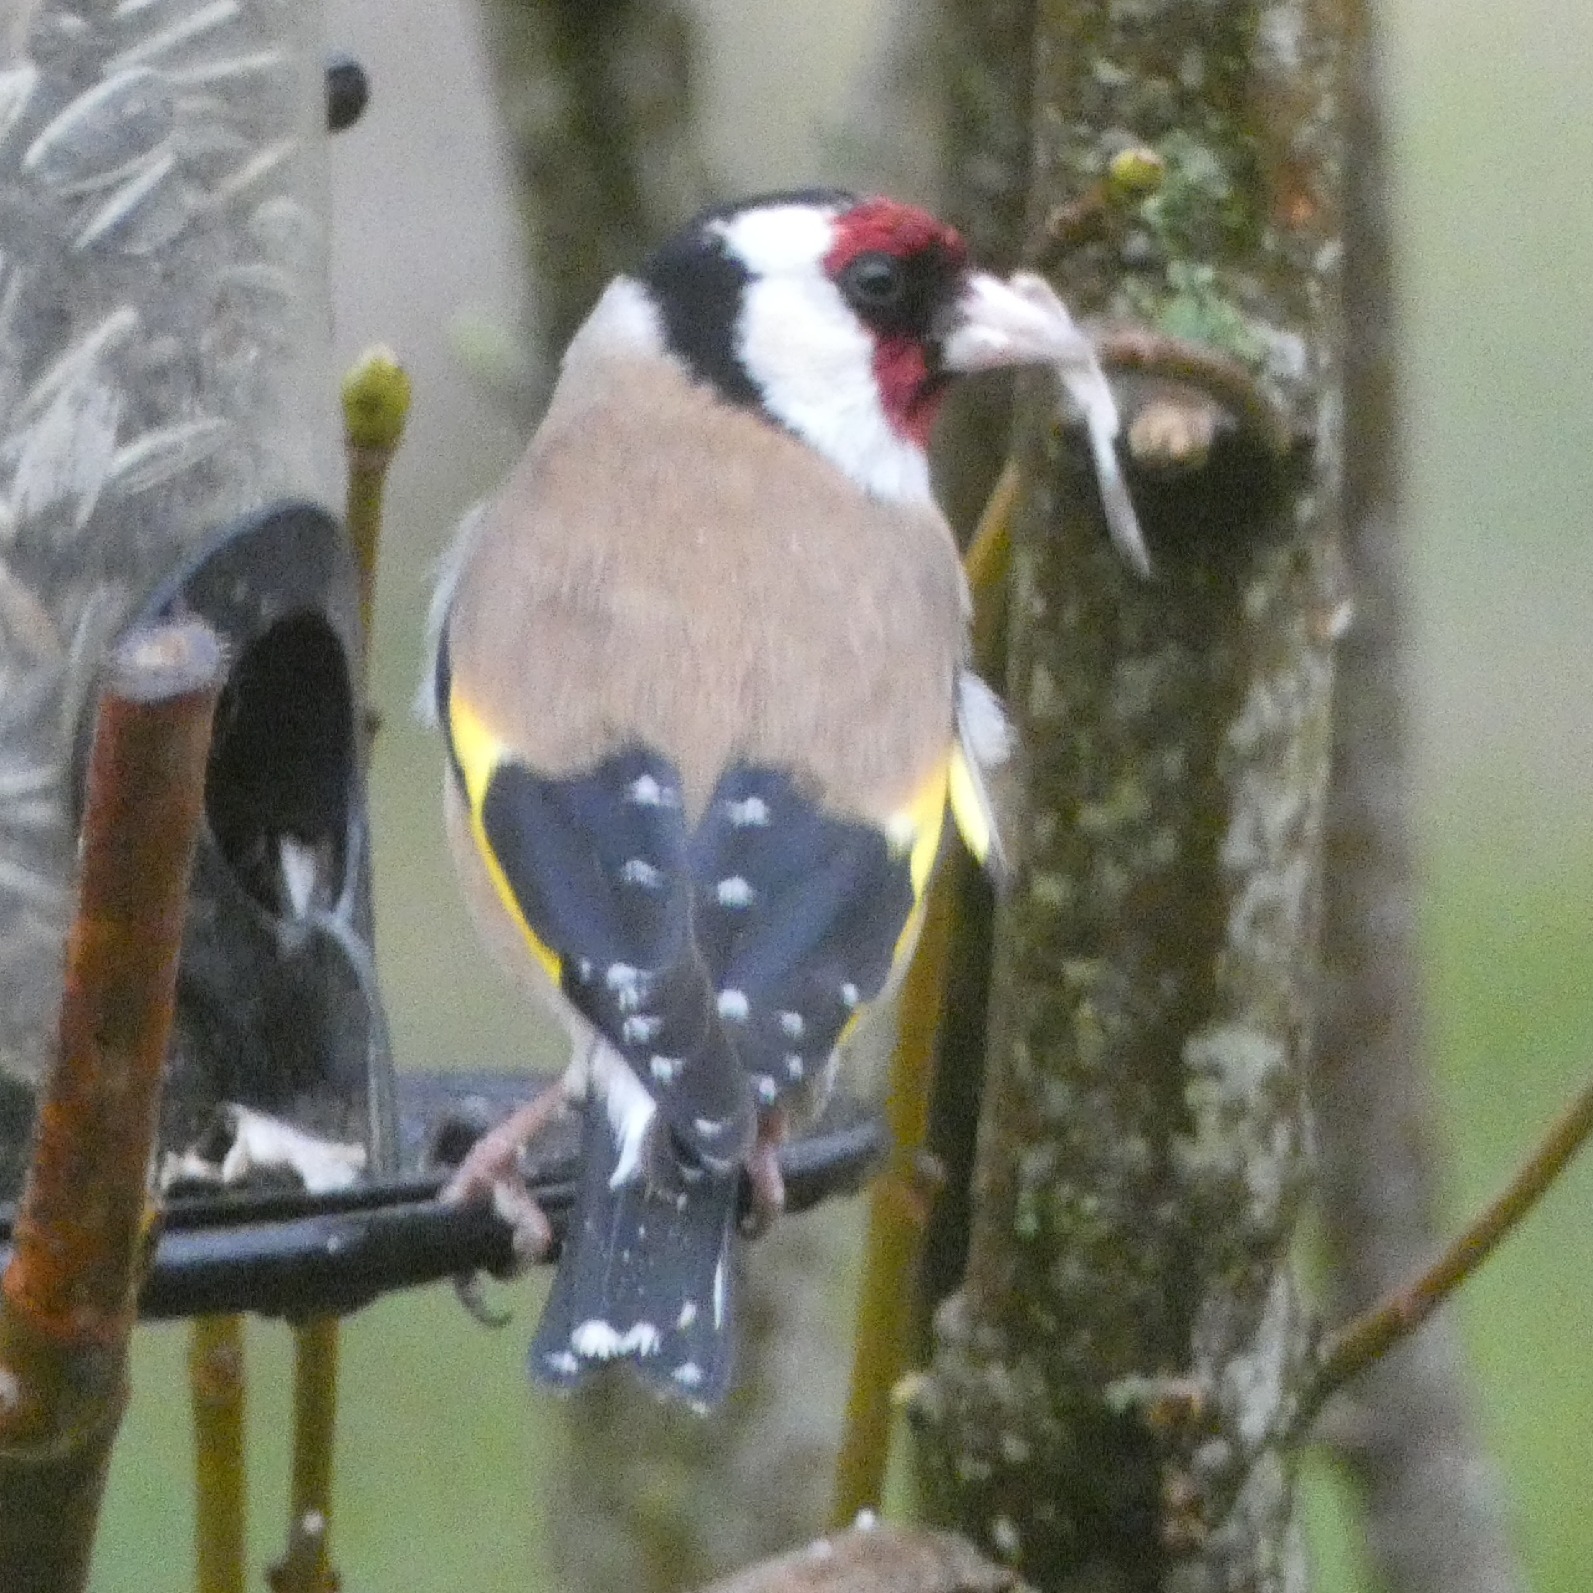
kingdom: Animalia
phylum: Chordata
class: Aves
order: Passeriformes
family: Fringillidae
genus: Carduelis
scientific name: Carduelis carduelis
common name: Stillits
